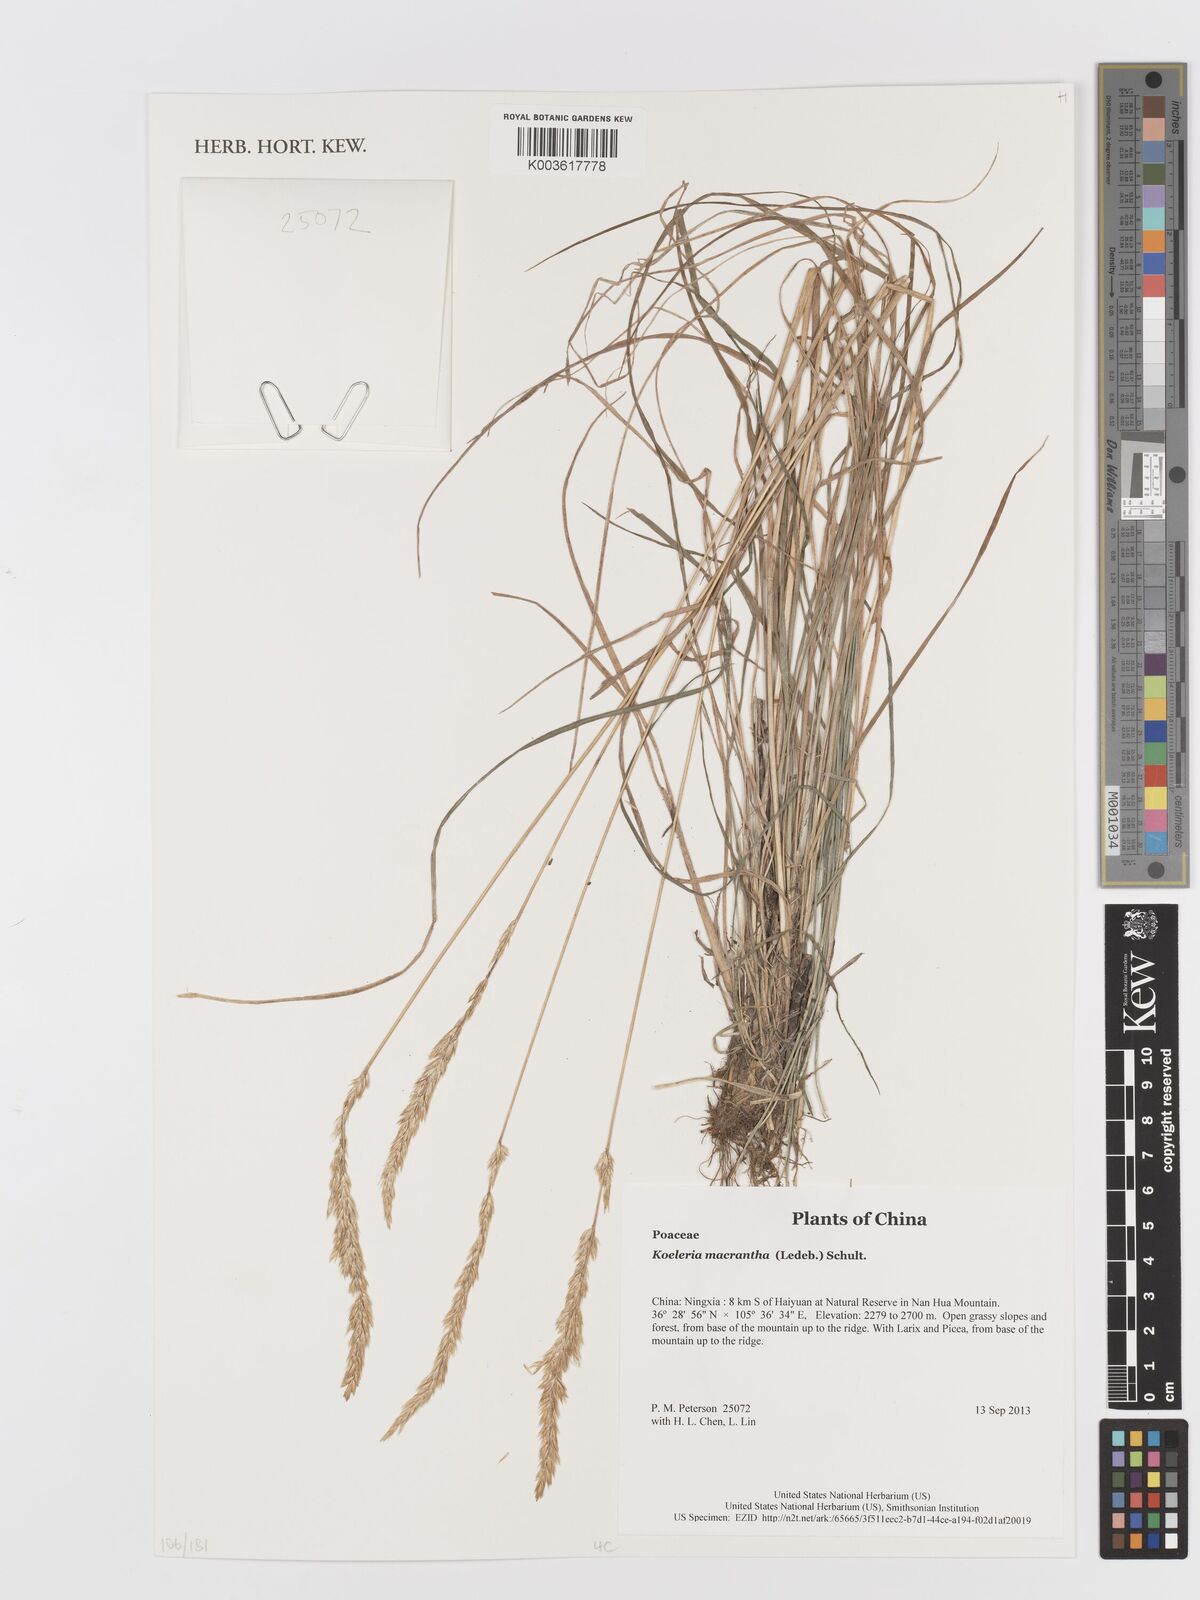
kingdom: Plantae
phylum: Tracheophyta
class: Liliopsida
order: Poales
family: Poaceae
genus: Koeleria
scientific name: Koeleria macrantha
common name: Crested hair-grass
